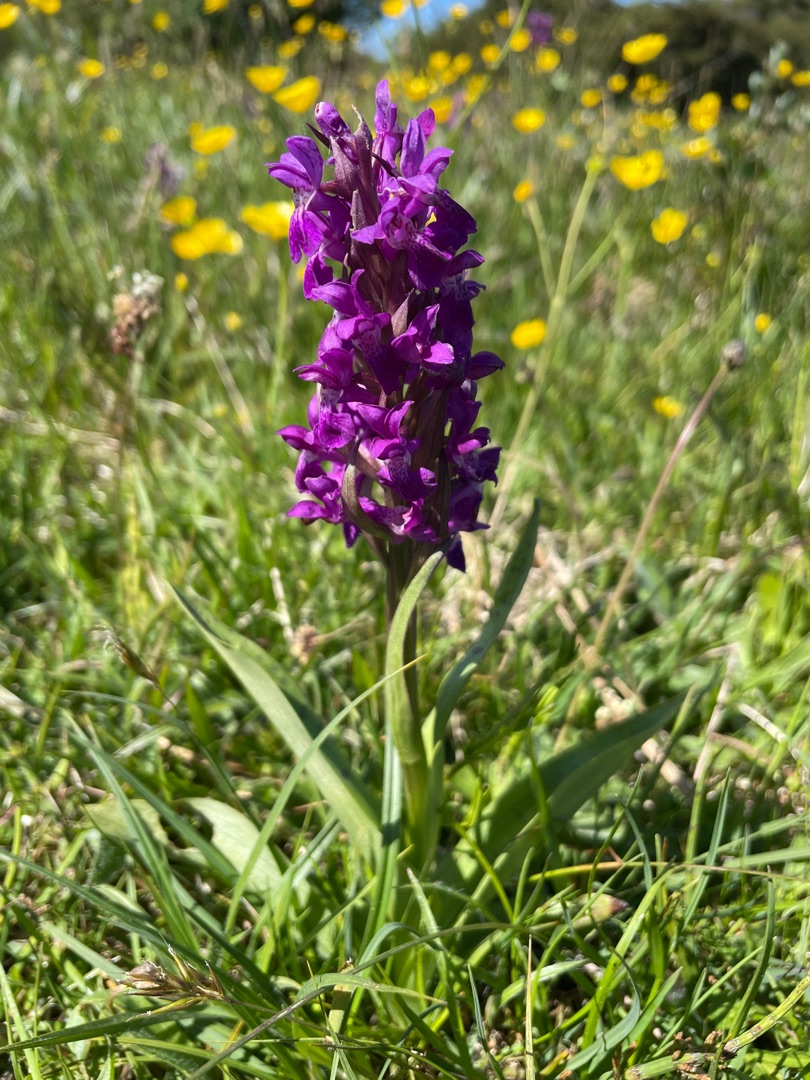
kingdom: Plantae
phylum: Tracheophyta
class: Liliopsida
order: Asparagales
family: Orchidaceae
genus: Dactylorhiza
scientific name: Dactylorhiza majalis
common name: Maj-gøgeurt
